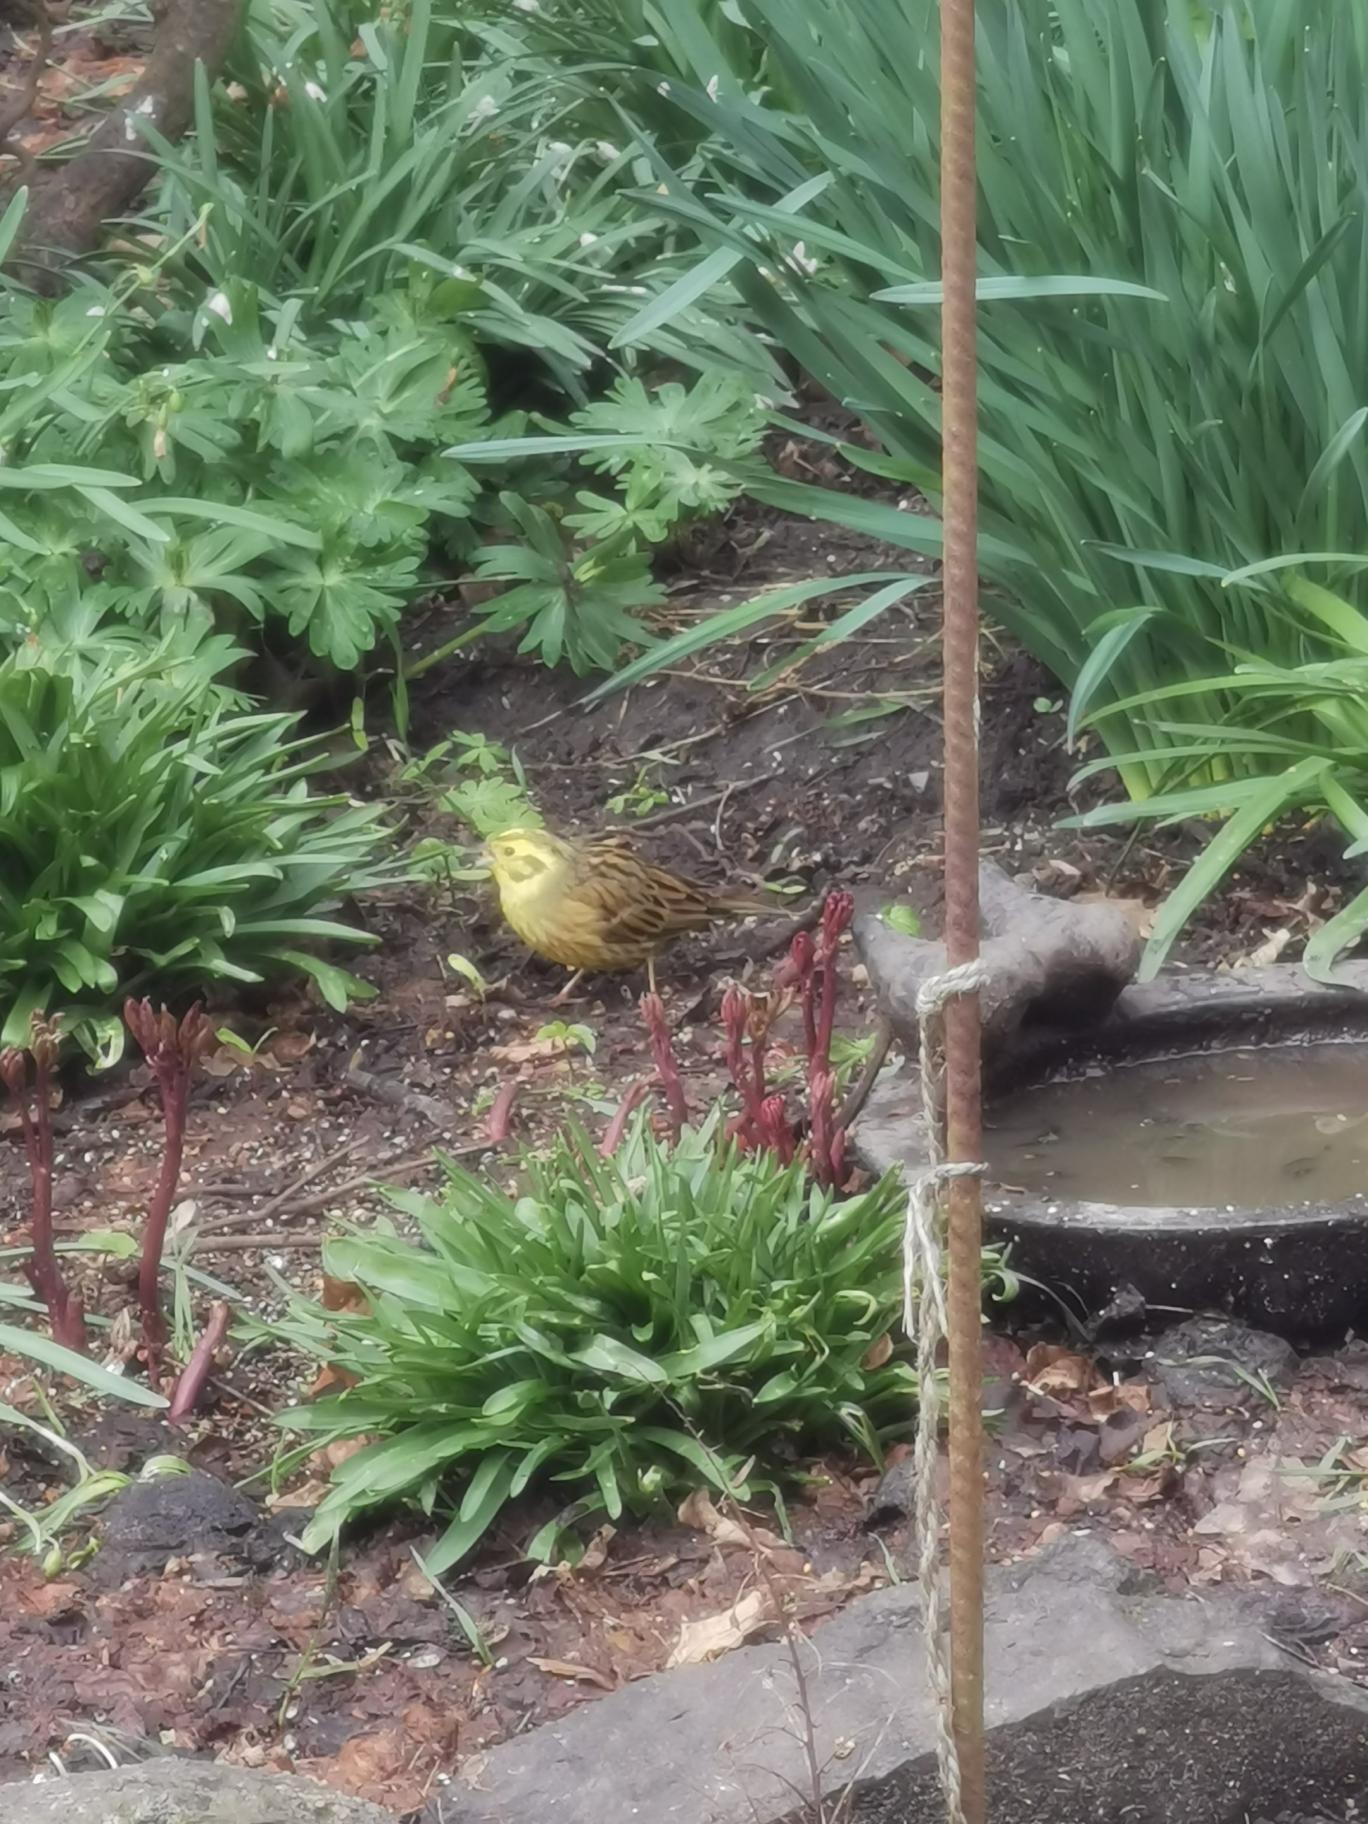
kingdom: Animalia
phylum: Chordata
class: Aves
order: Passeriformes
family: Emberizidae
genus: Emberiza
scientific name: Emberiza citrinella
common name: Gulspurv
